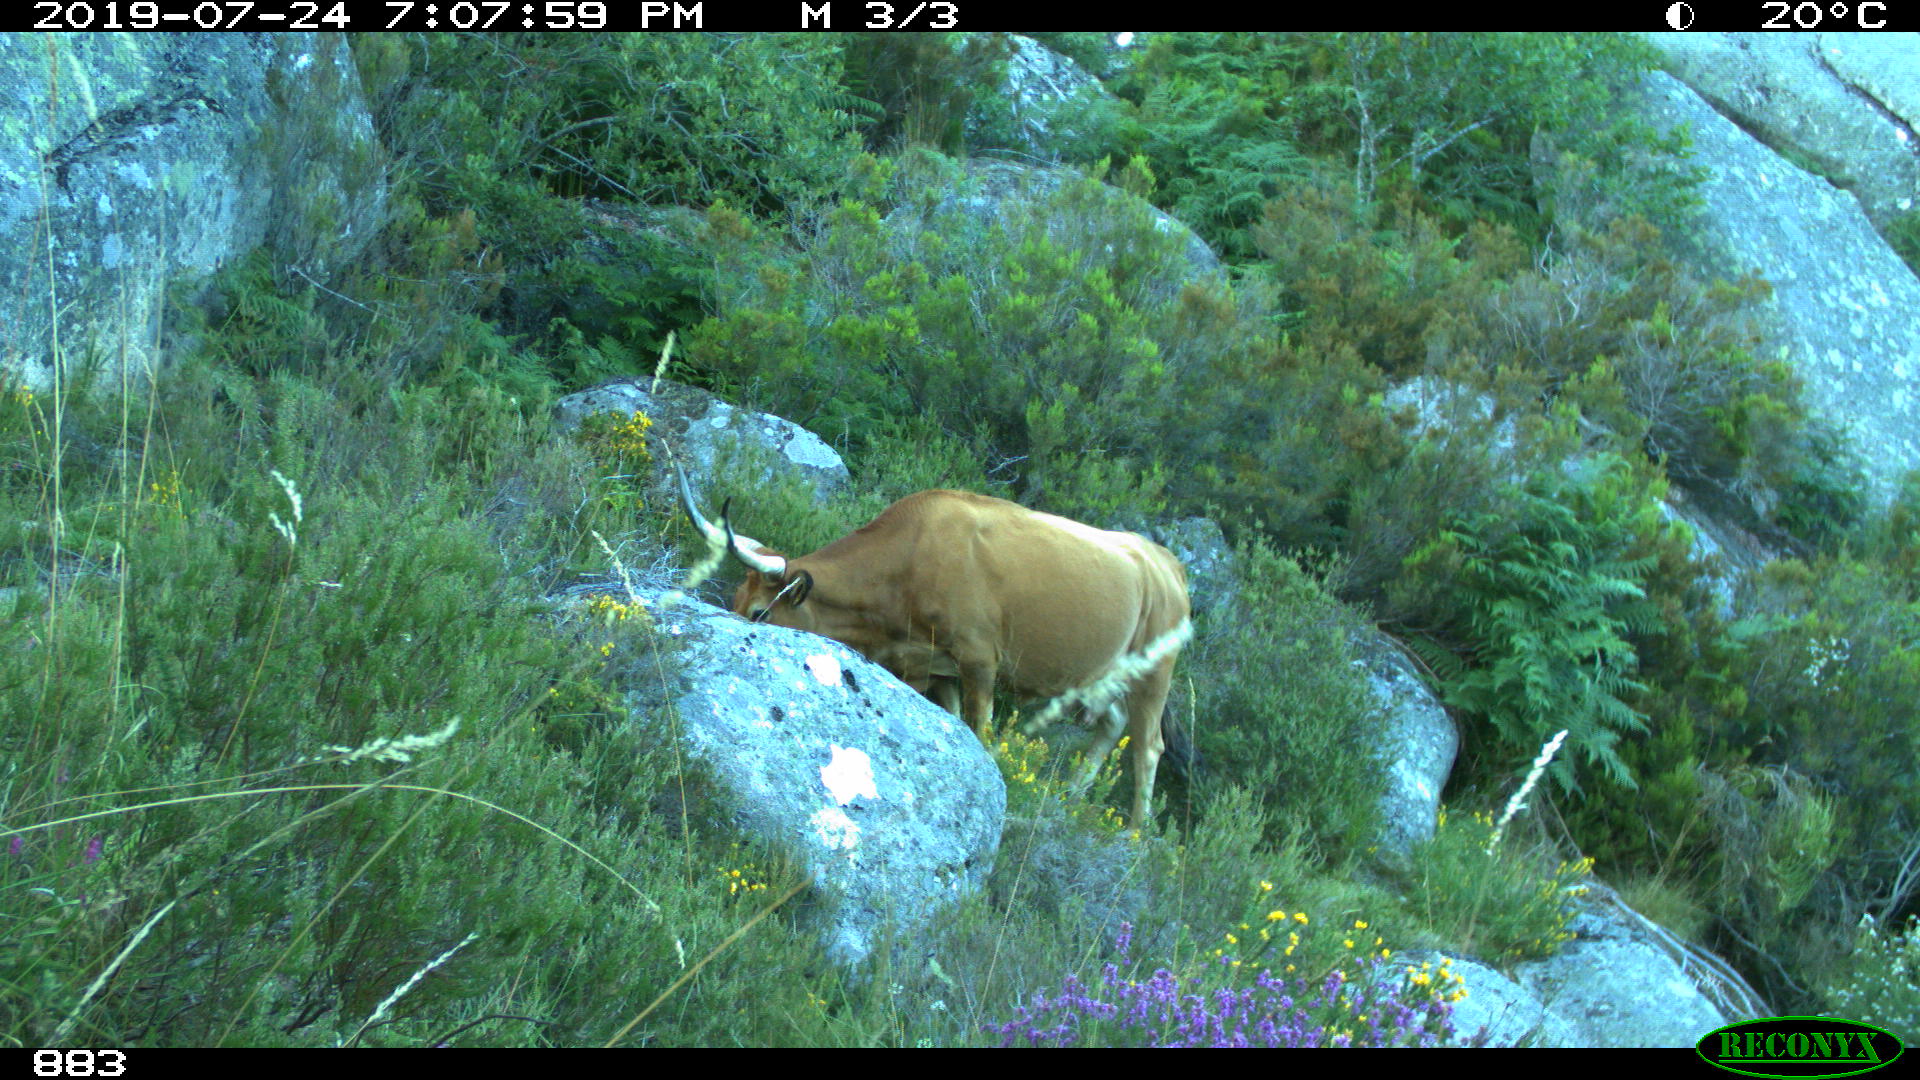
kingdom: Animalia
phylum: Chordata
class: Mammalia
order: Artiodactyla
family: Bovidae
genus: Bos
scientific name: Bos taurus
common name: Domesticated cattle
